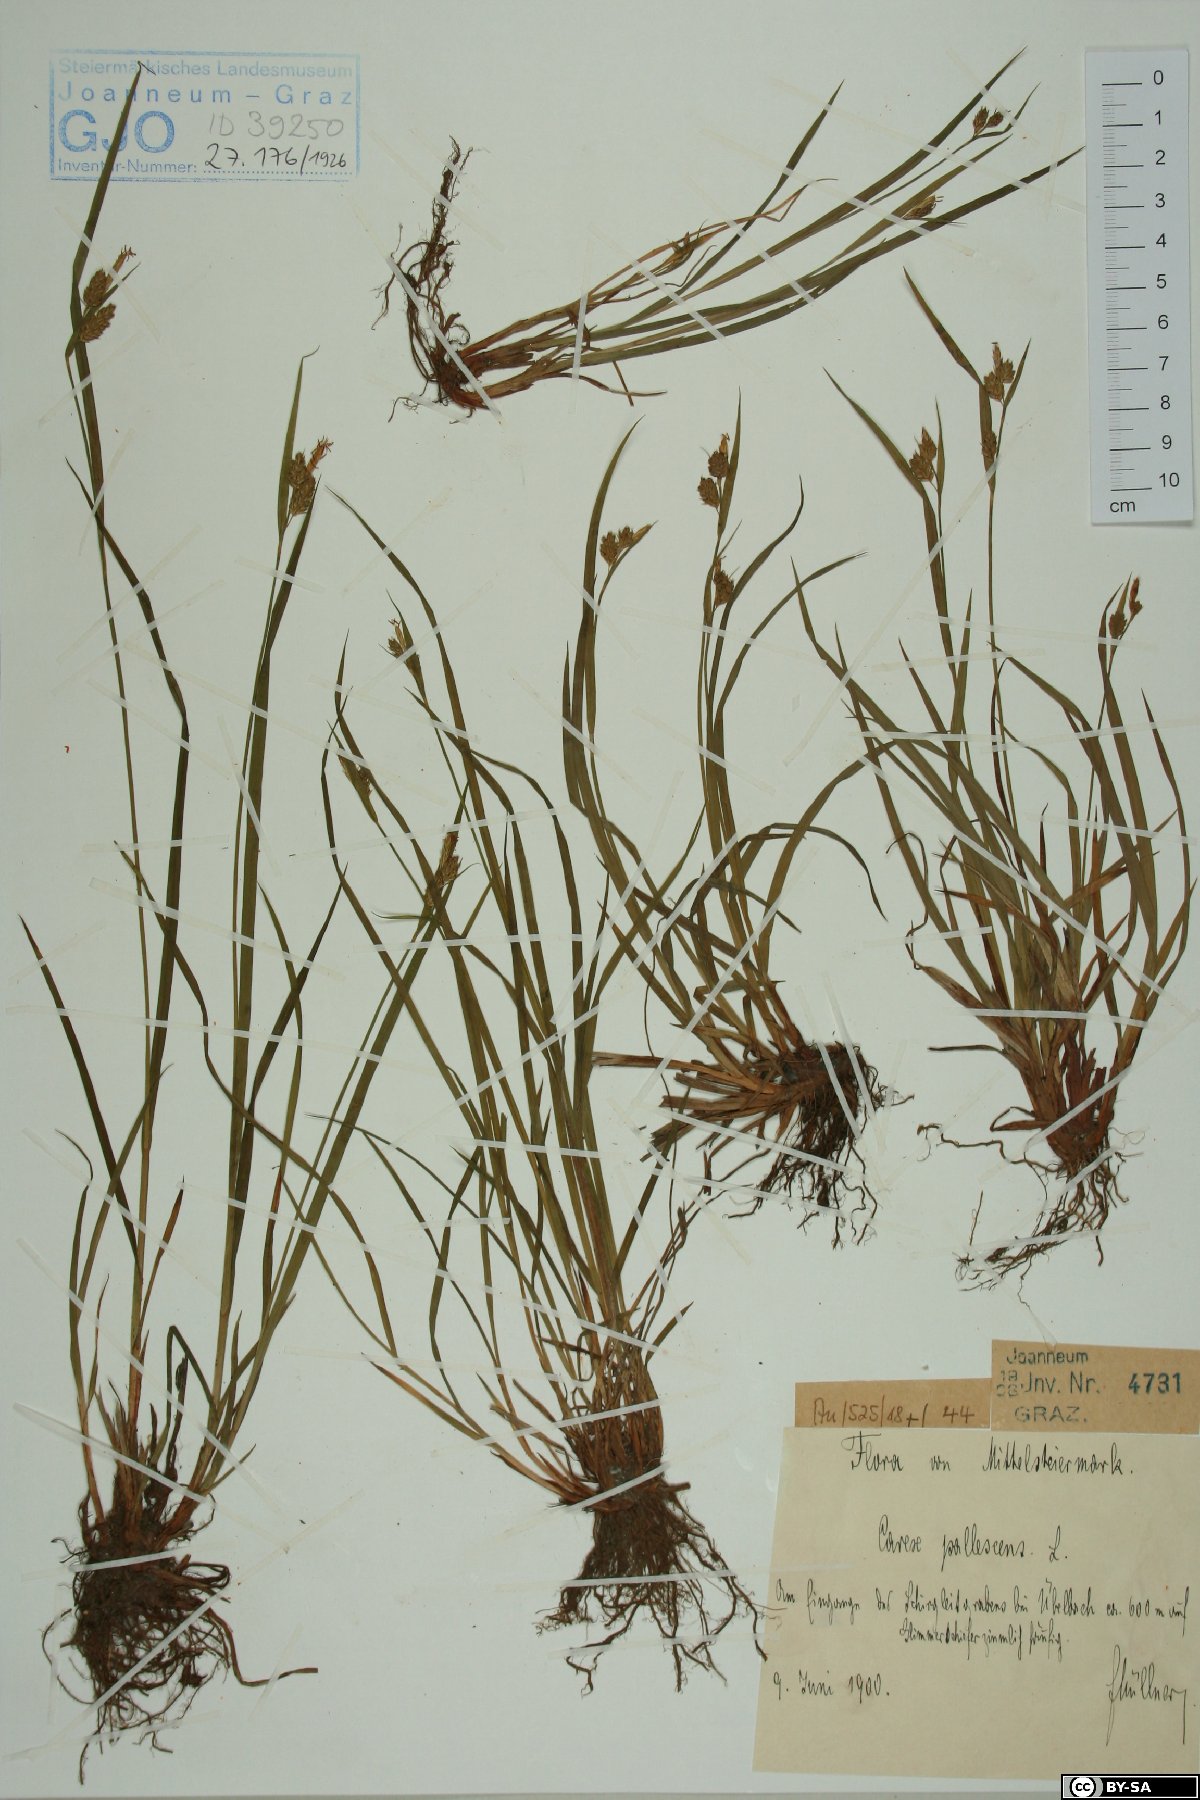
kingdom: Plantae
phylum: Tracheophyta
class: Liliopsida
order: Poales
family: Cyperaceae
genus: Carex
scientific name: Carex pallescens
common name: Pale sedge
